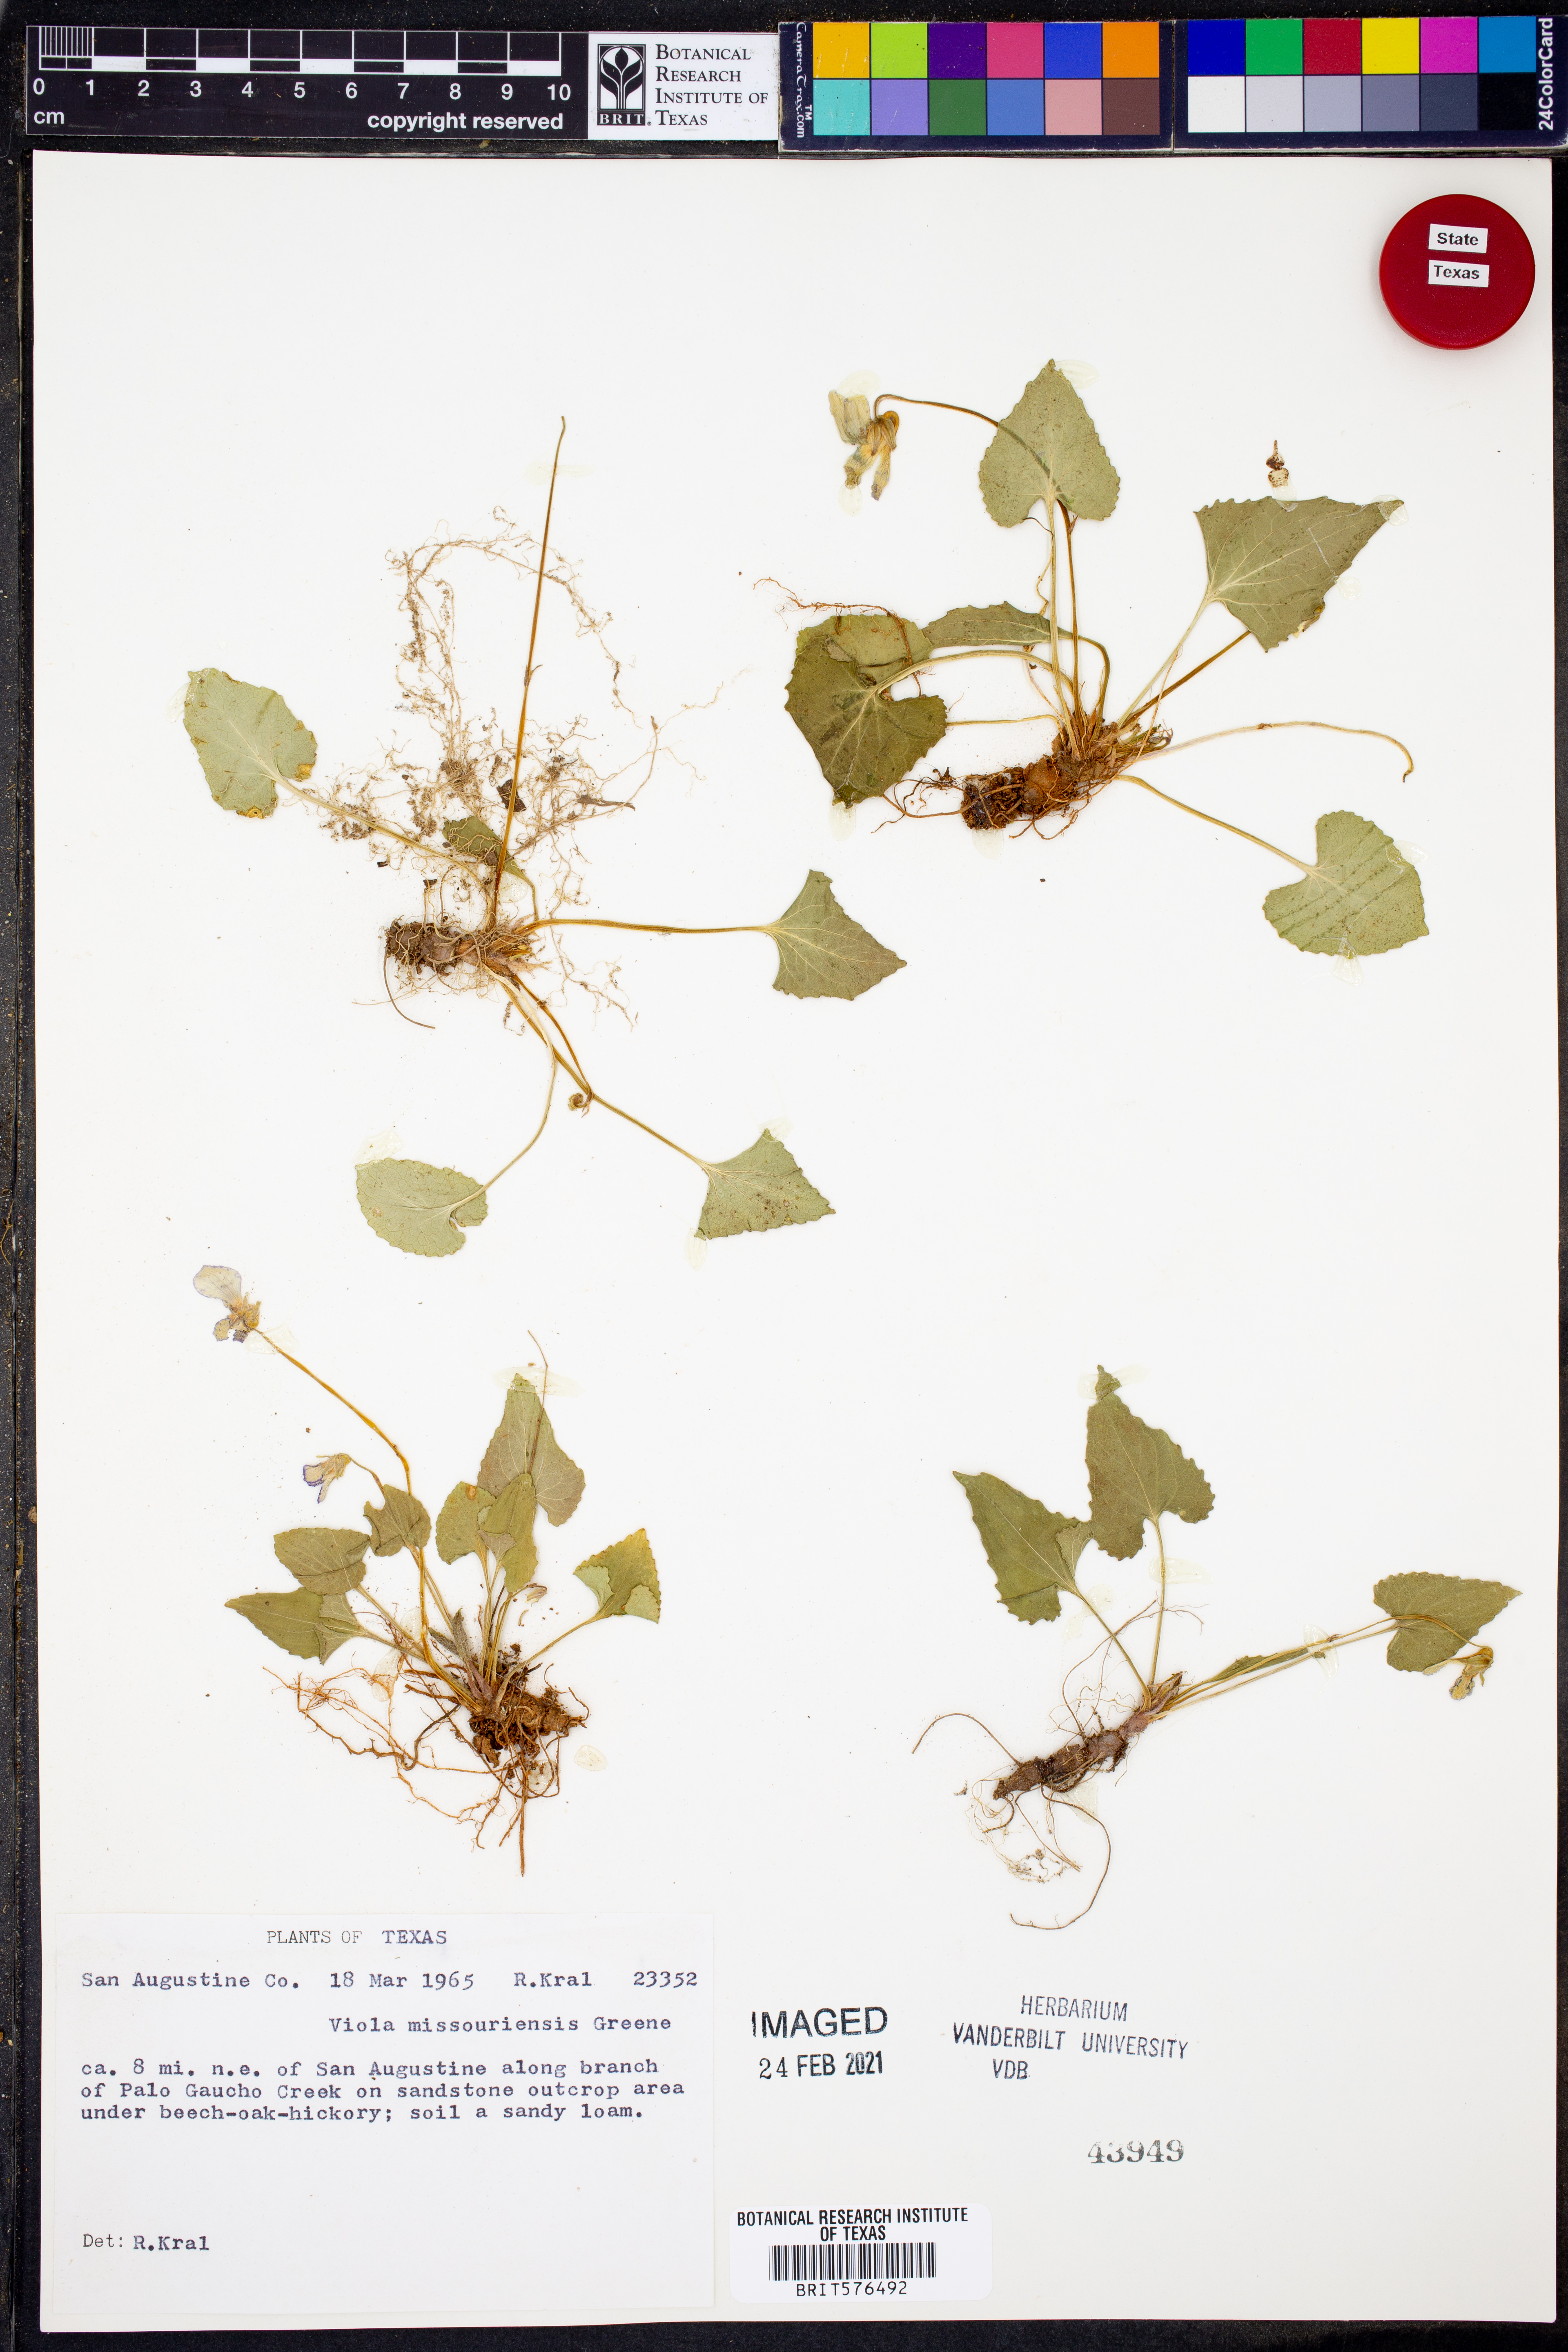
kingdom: Plantae
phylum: Tracheophyta
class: Magnoliopsida
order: Malpighiales
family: Violaceae
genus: Viola
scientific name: Viola missouriensis
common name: Missouri violet
